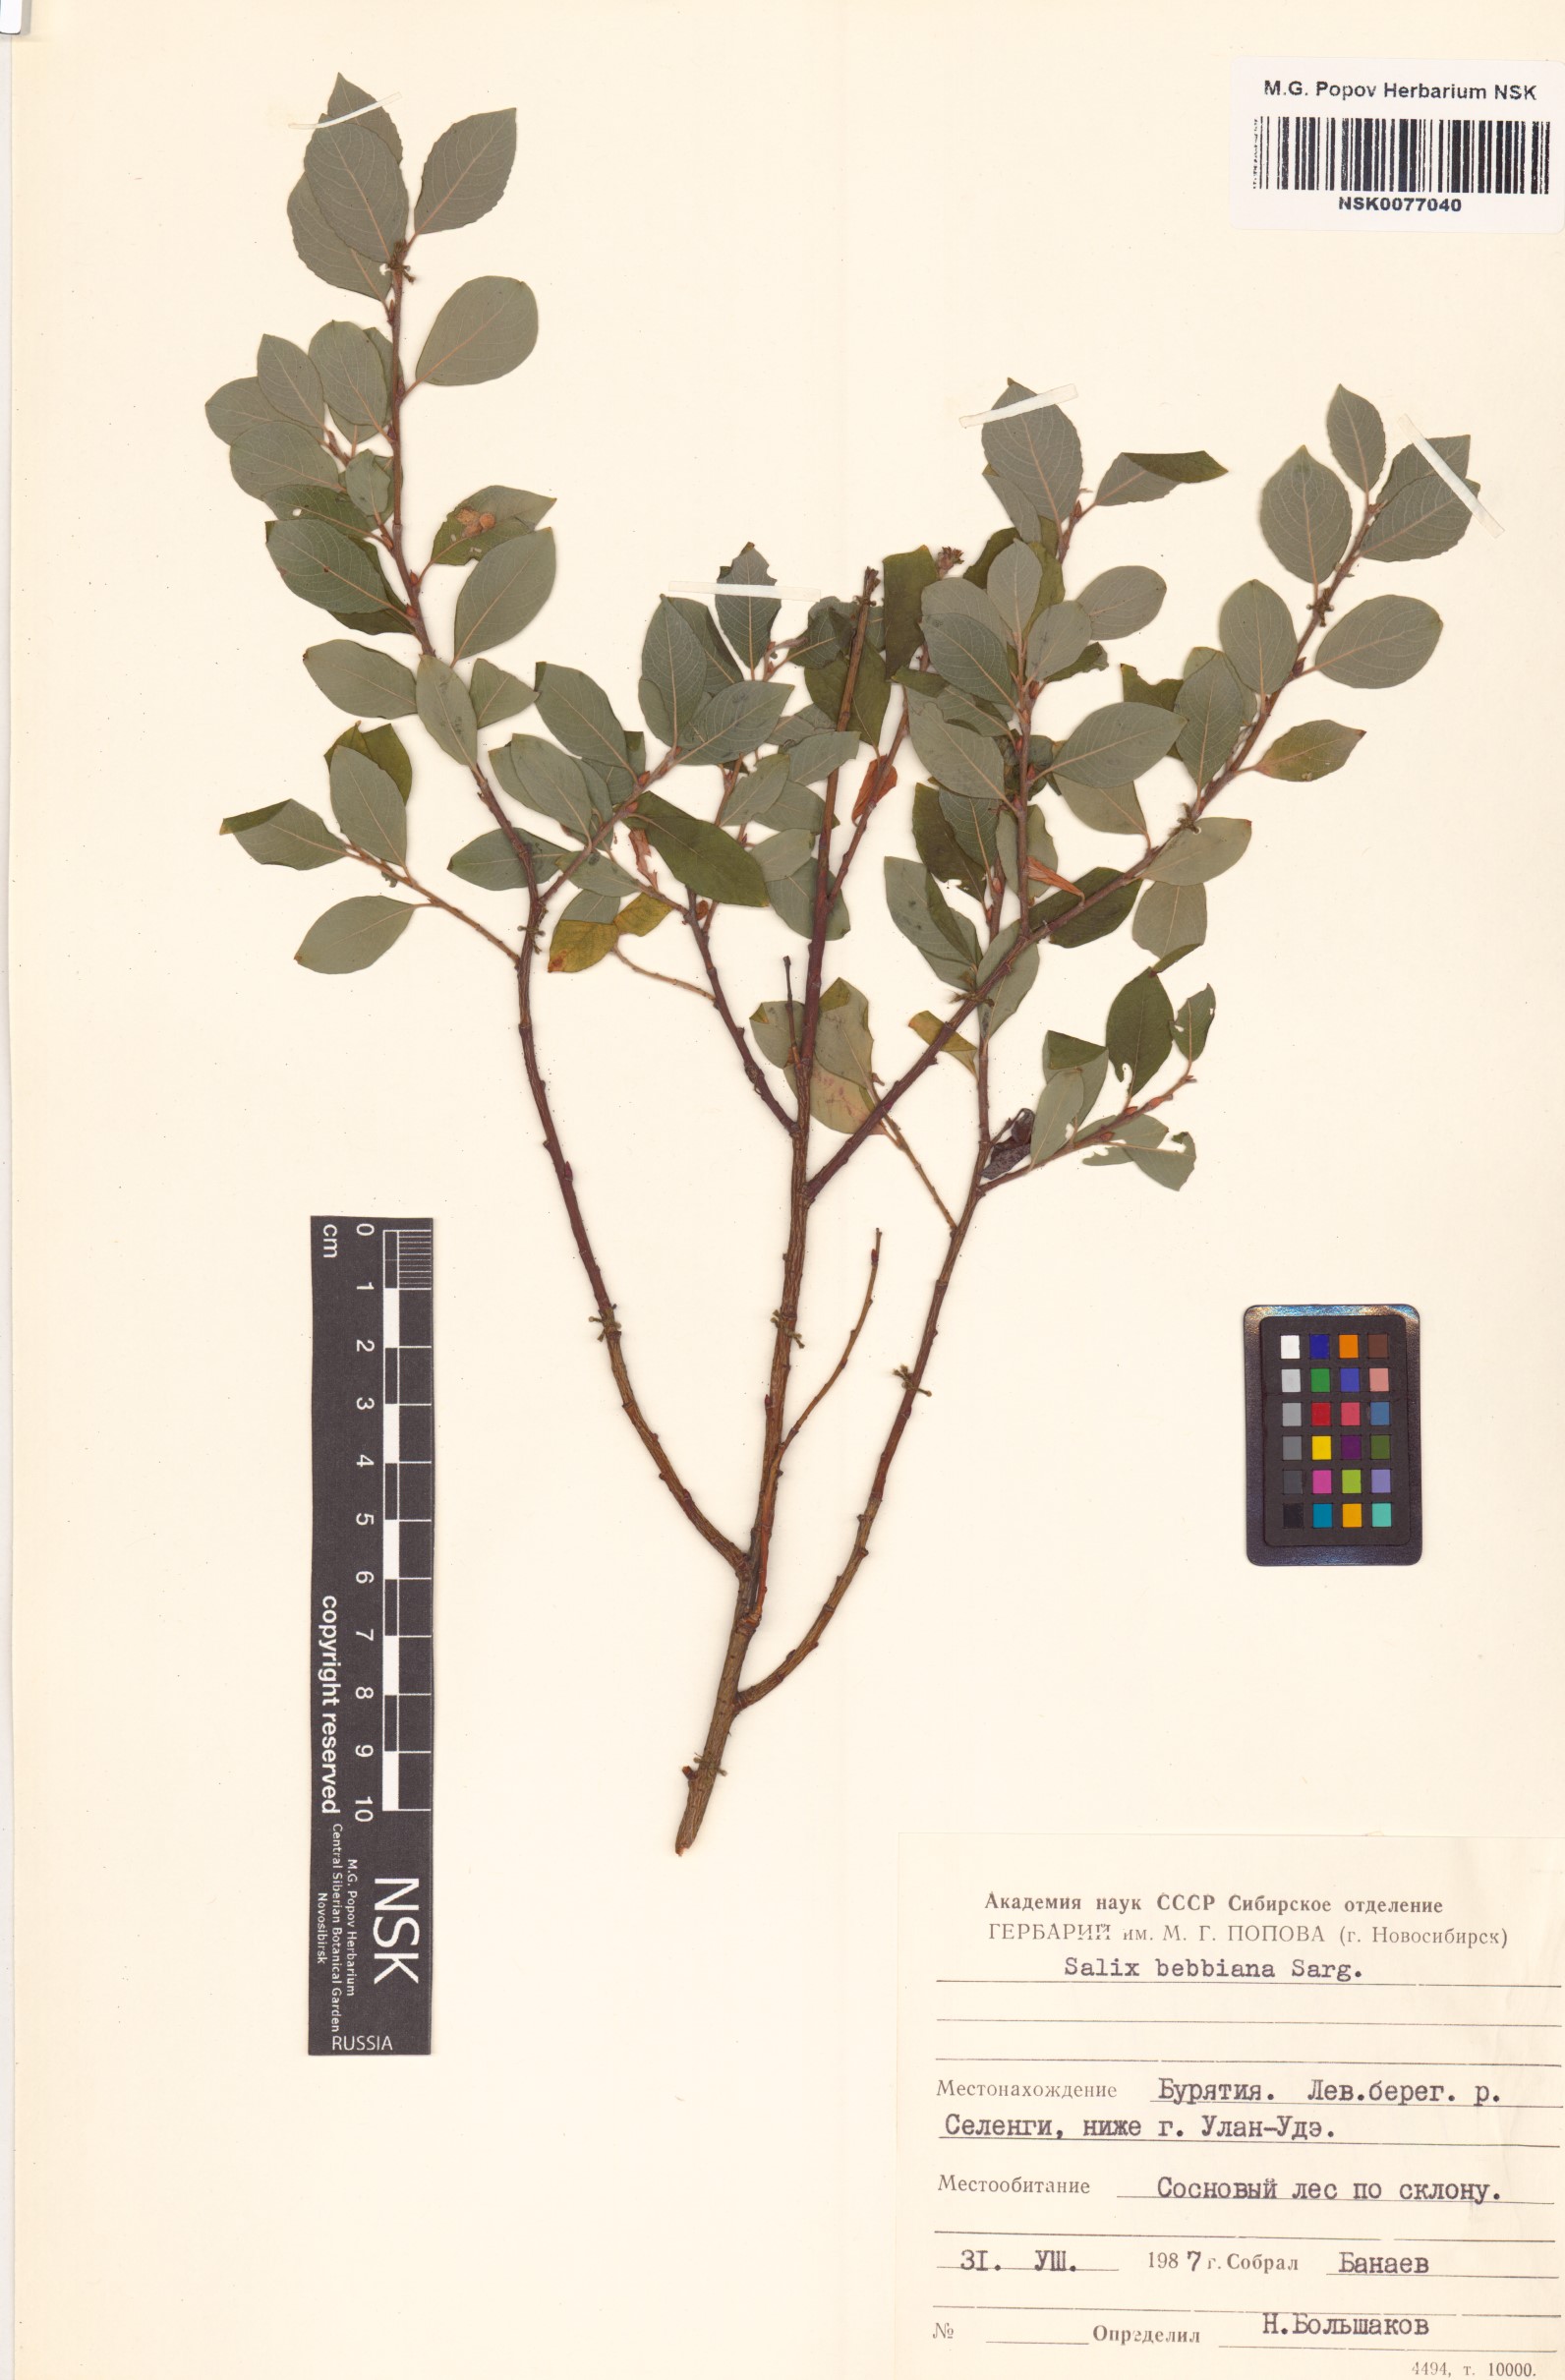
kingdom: Plantae
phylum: Tracheophyta
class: Magnoliopsida
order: Malpighiales
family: Salicaceae
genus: Salix
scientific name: Salix bebbiana
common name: Bebb's willow
